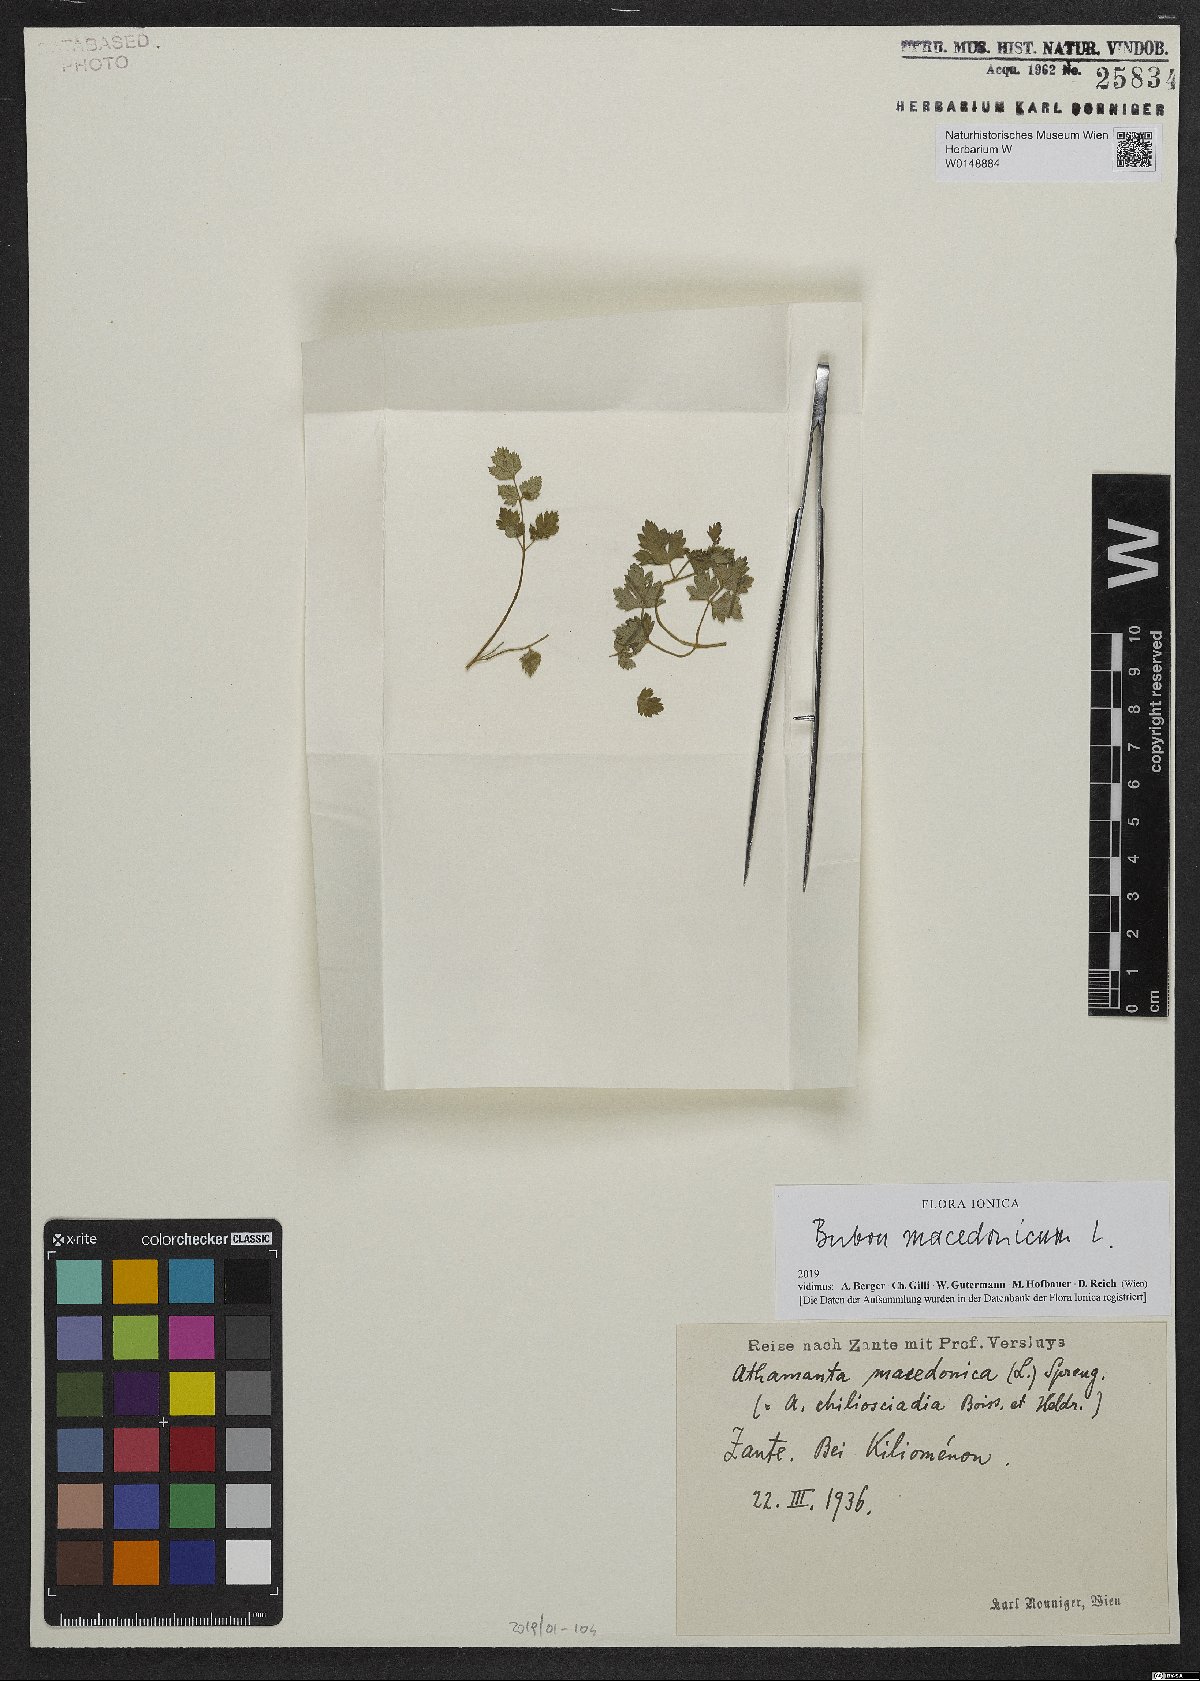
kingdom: Plantae
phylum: Tracheophyta
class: Magnoliopsida
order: Apiales
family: Apiaceae
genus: Bubon
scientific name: Bubon macedonicum
